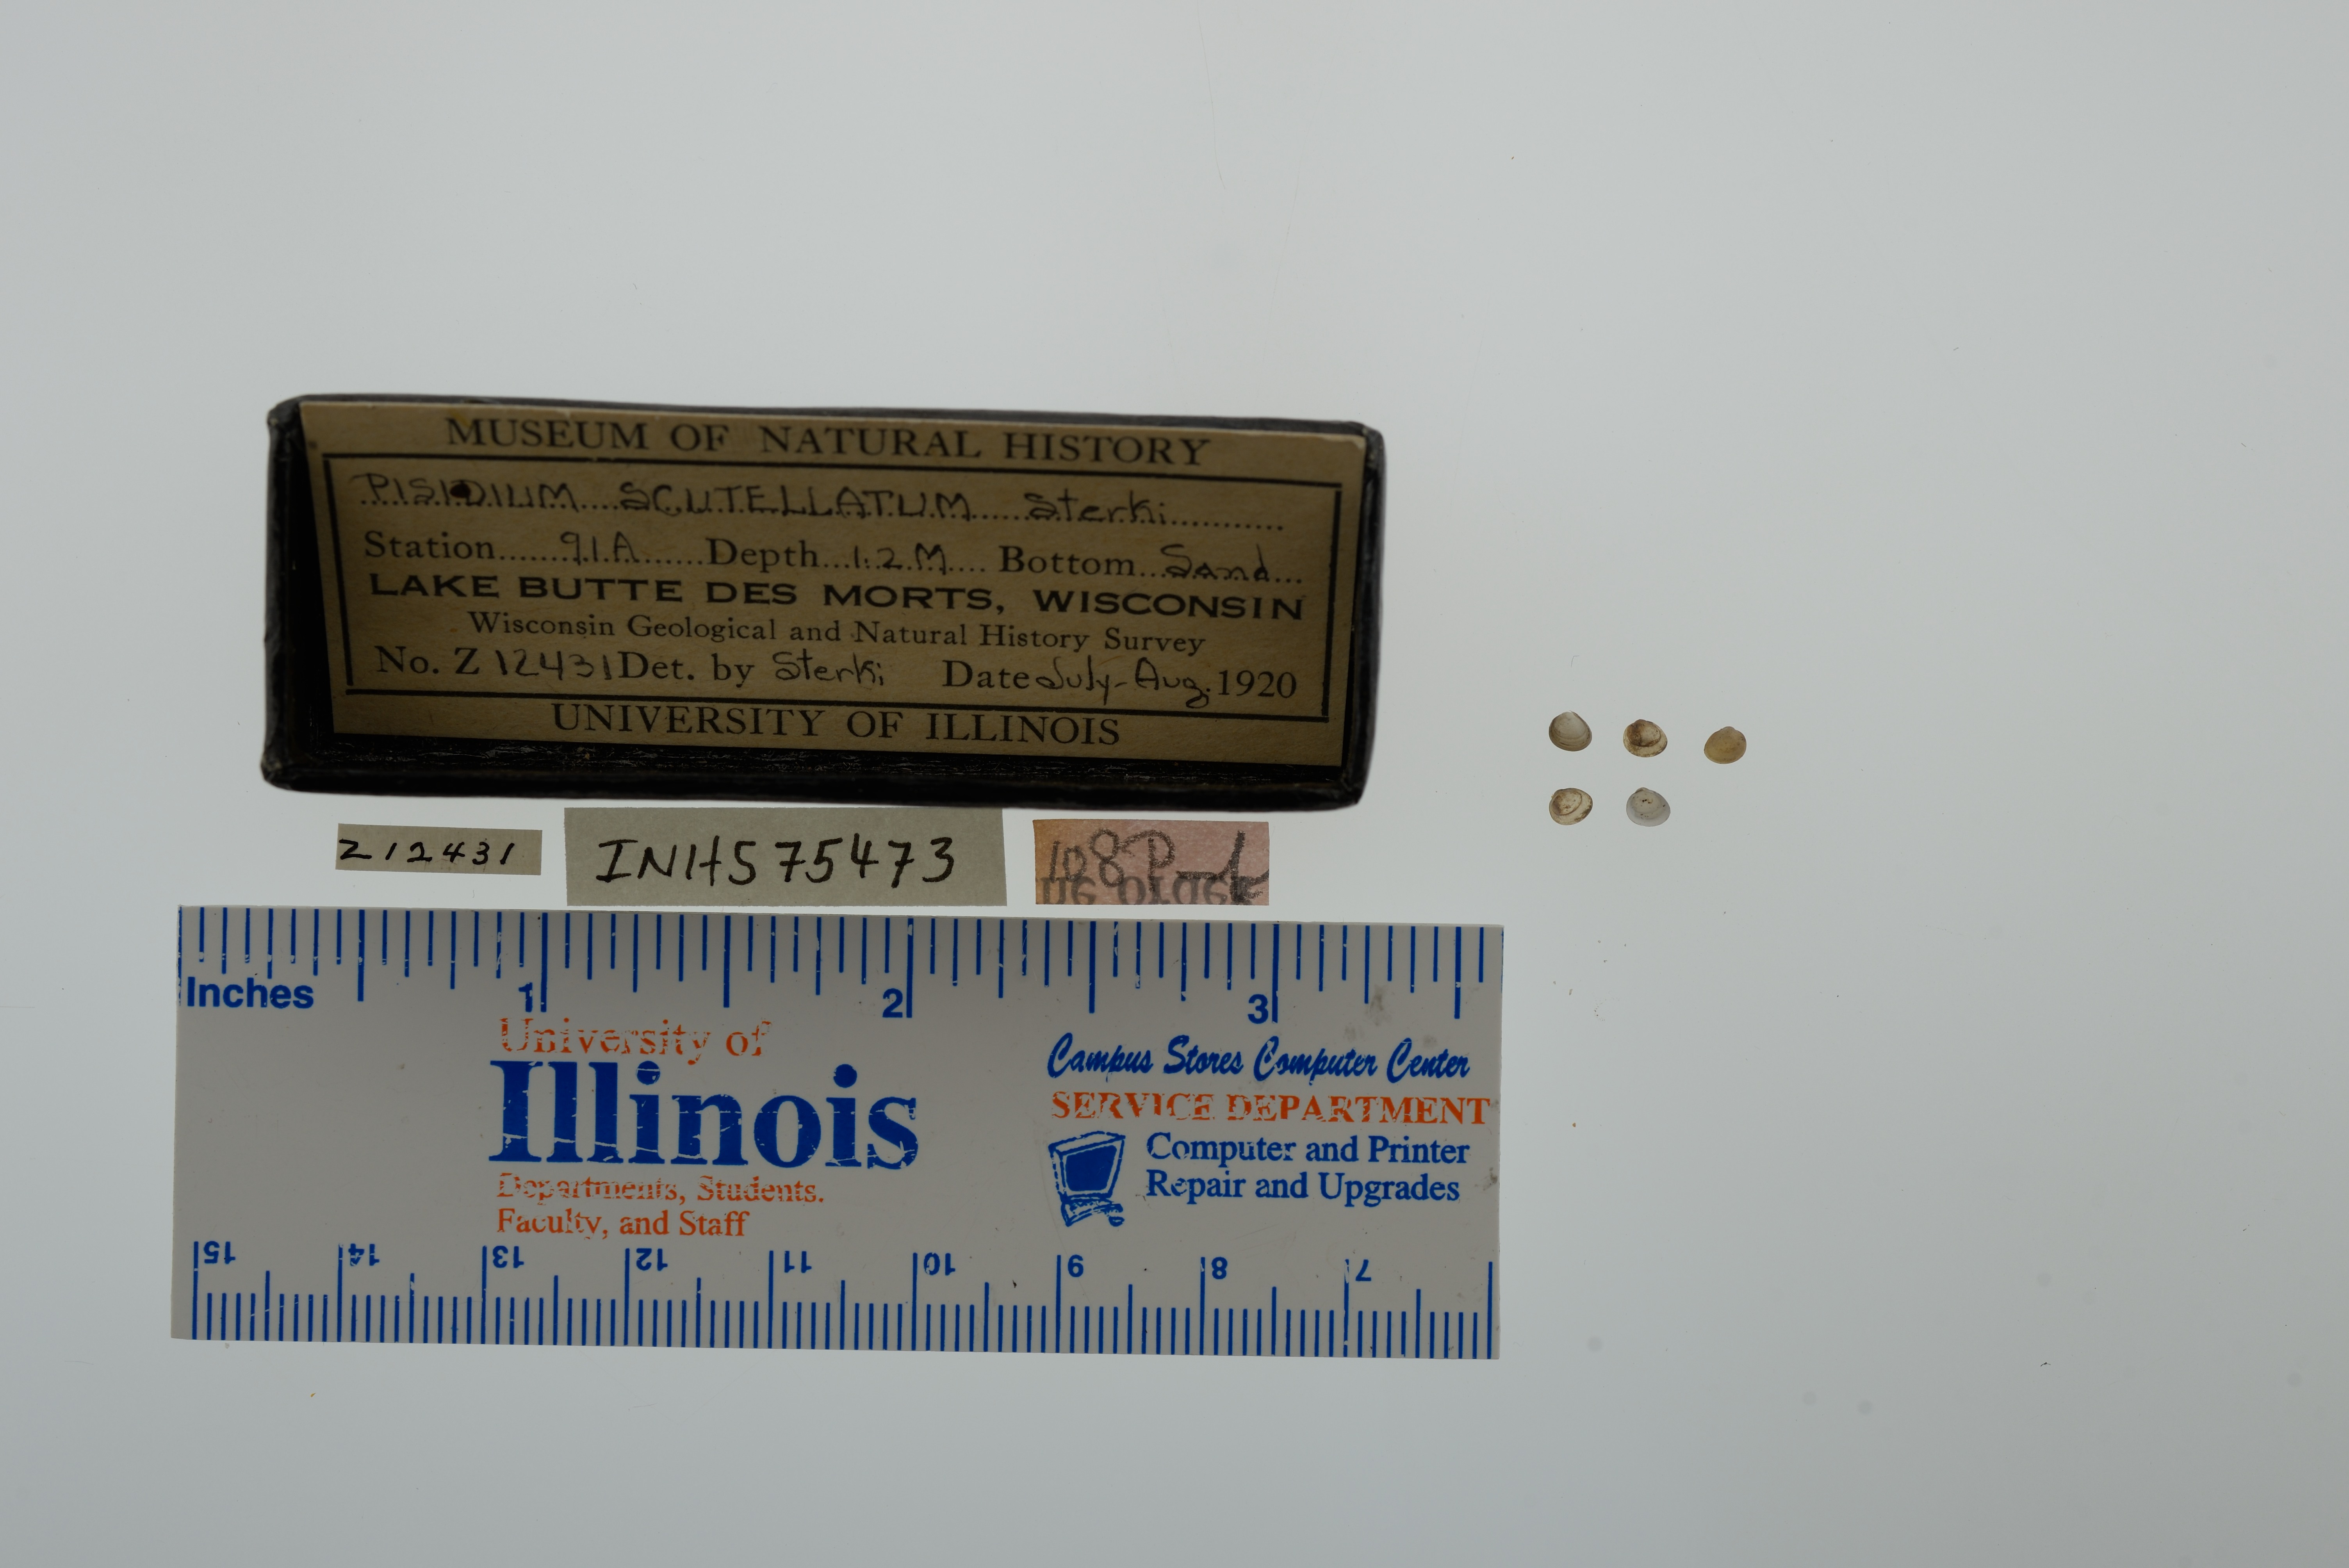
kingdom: Animalia
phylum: Mollusca
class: Bivalvia
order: Sphaeriida
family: Sphaeriidae
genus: Euglesa
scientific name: Euglesa lilljeborgii
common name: Lilljeborg peaclam
